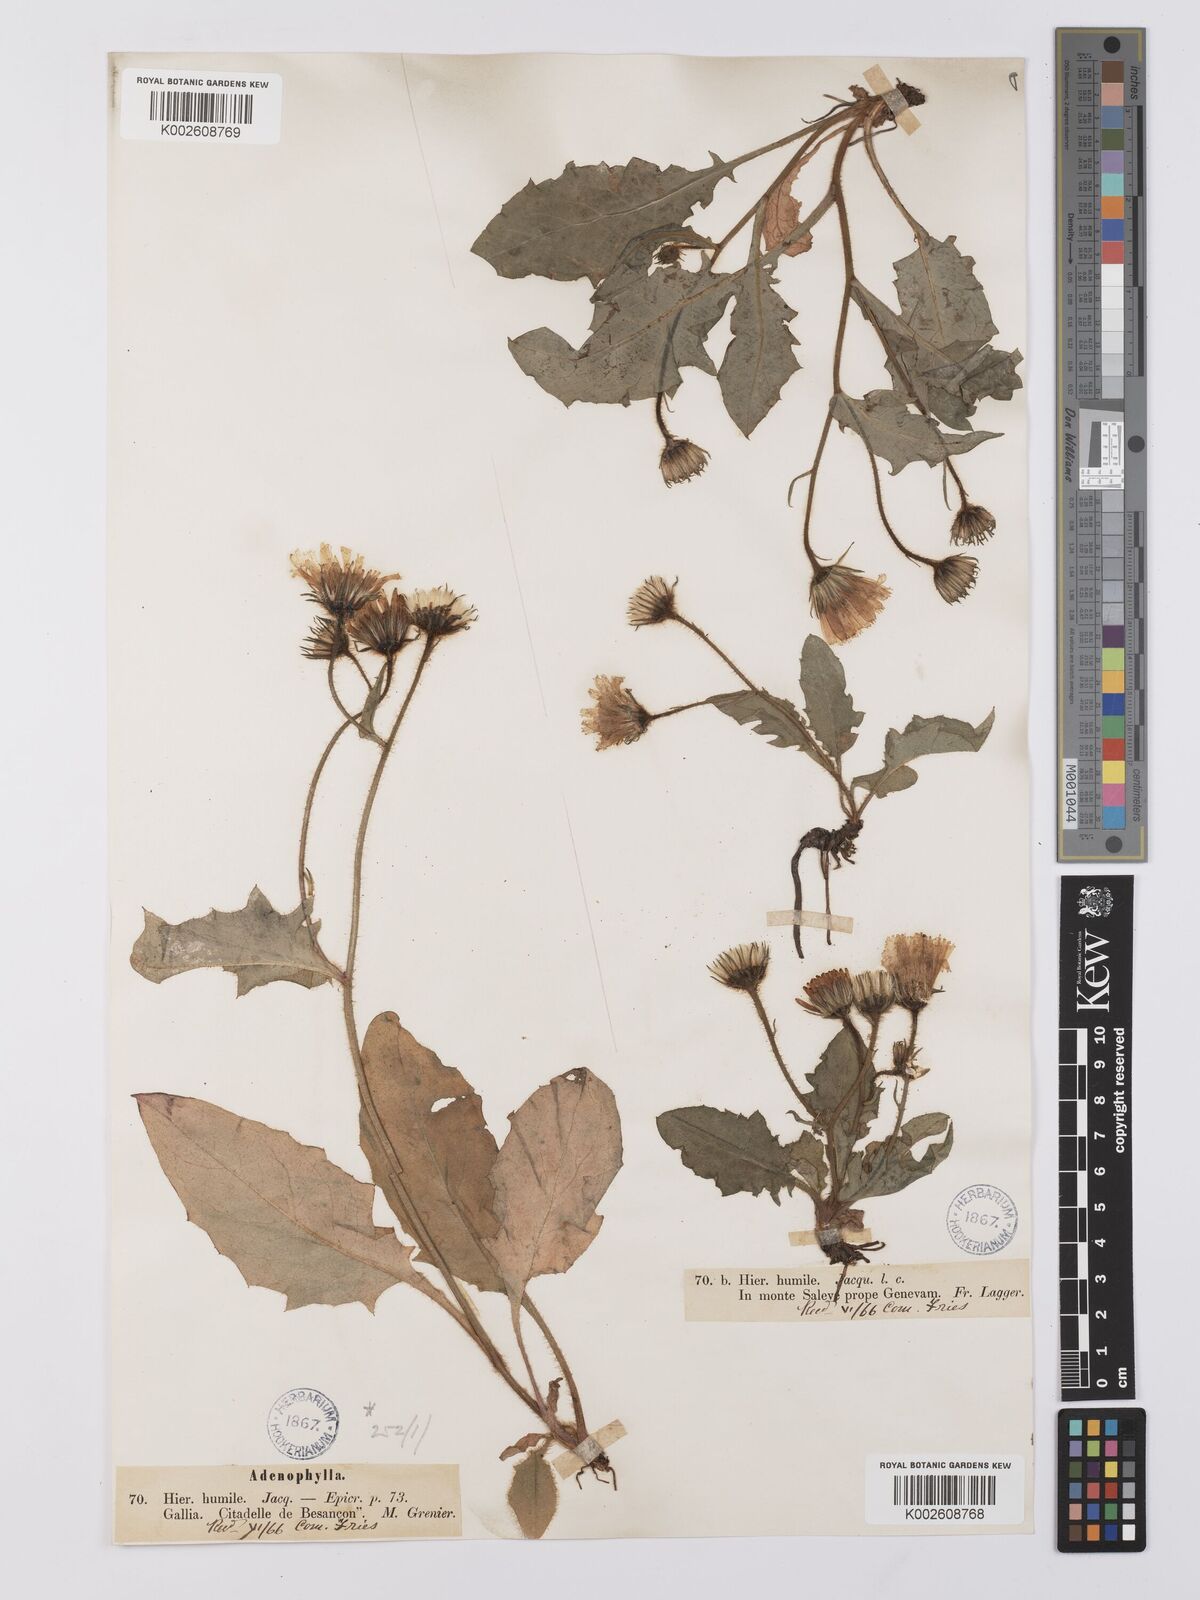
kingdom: Plantae
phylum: Tracheophyta
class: Magnoliopsida
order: Asterales
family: Asteraceae
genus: Hieracium
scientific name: Hieracium humile
